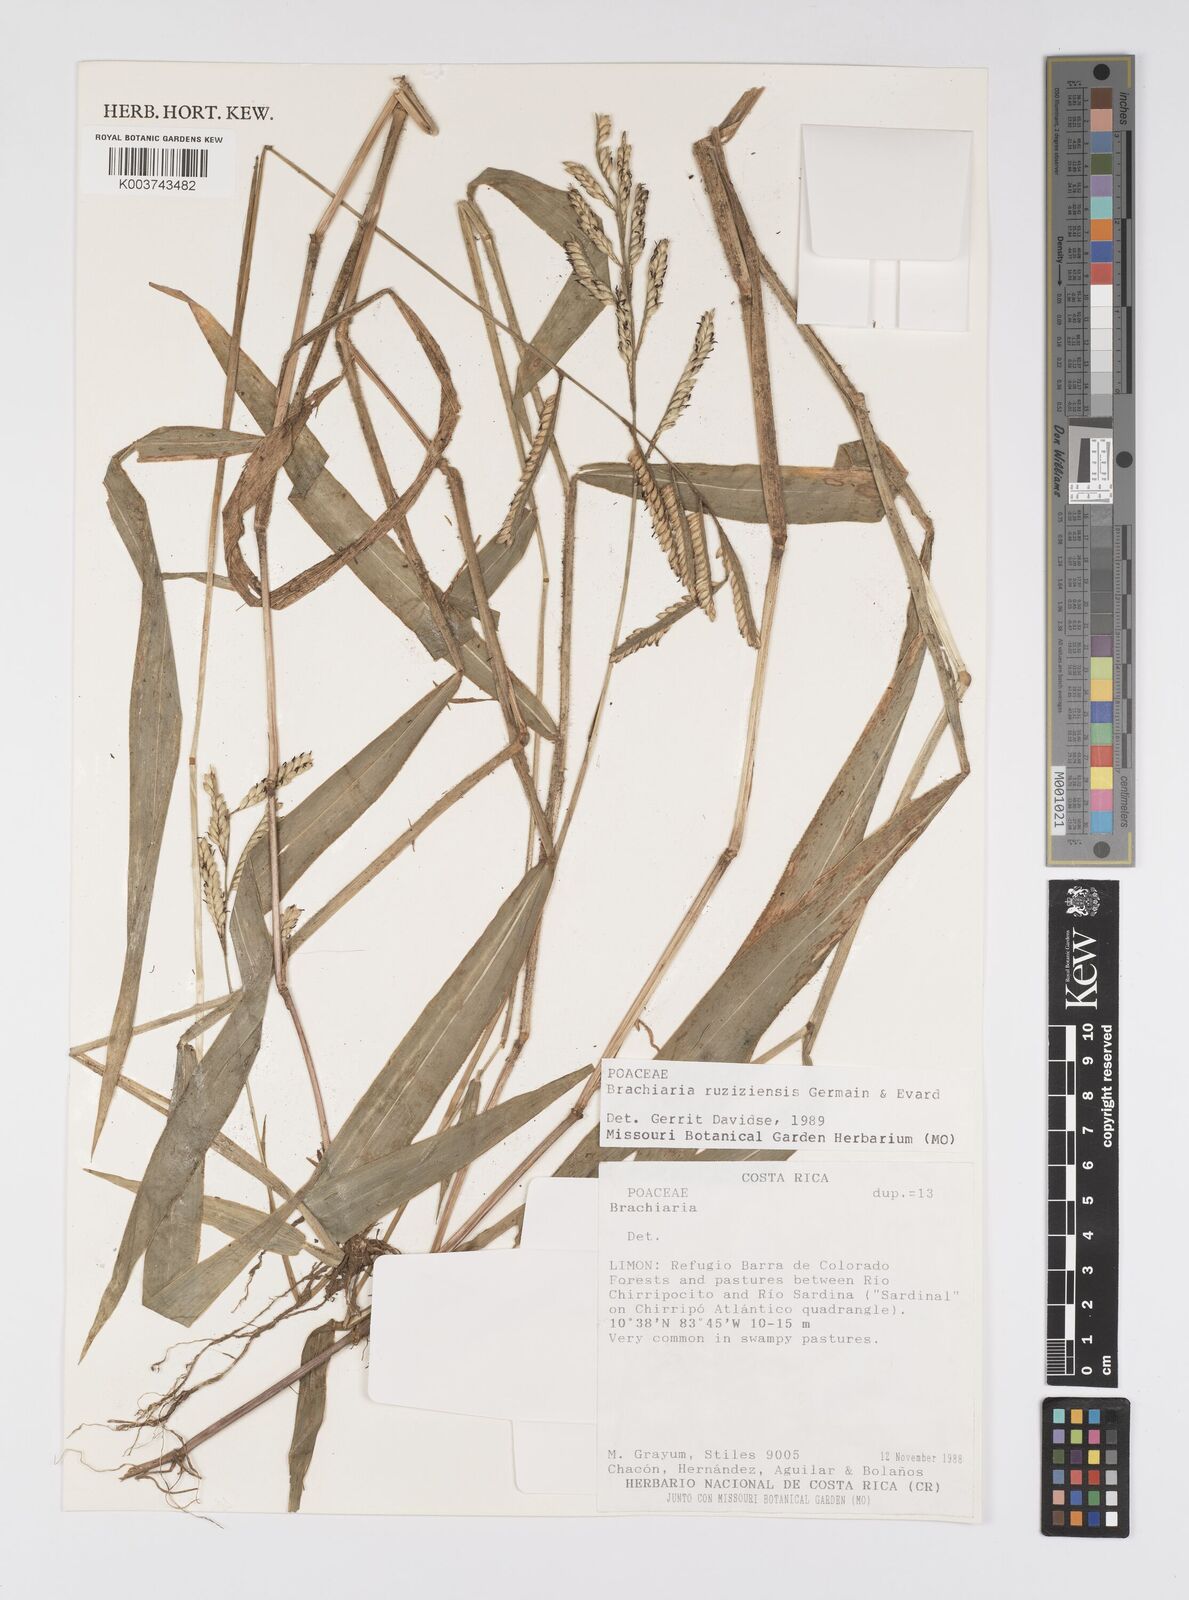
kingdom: Plantae
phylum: Tracheophyta
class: Liliopsida
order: Poales
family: Poaceae
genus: Urochloa
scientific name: Urochloa eminii
